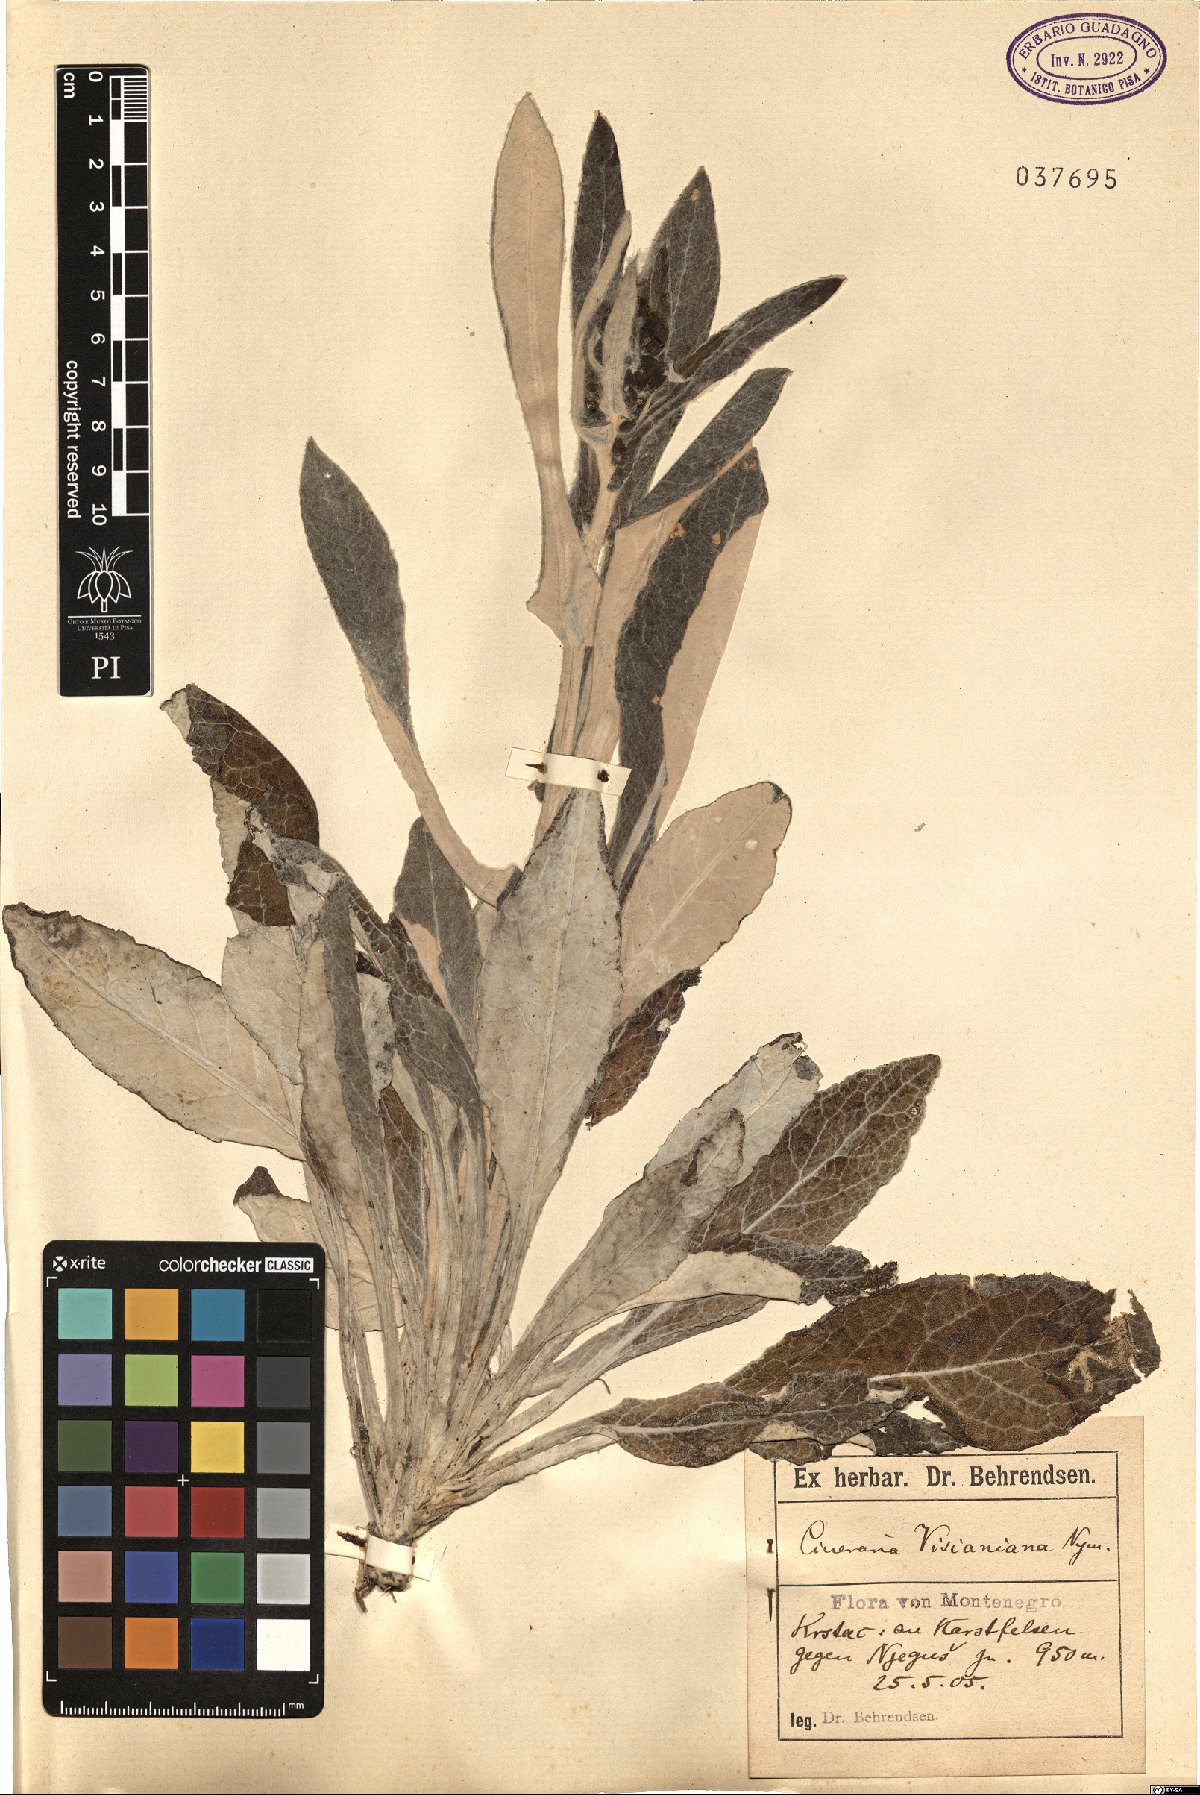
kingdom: Plantae
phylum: Tracheophyta
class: Magnoliopsida
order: Asterales
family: Asteraceae
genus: Senecio
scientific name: Senecio thapsoides
